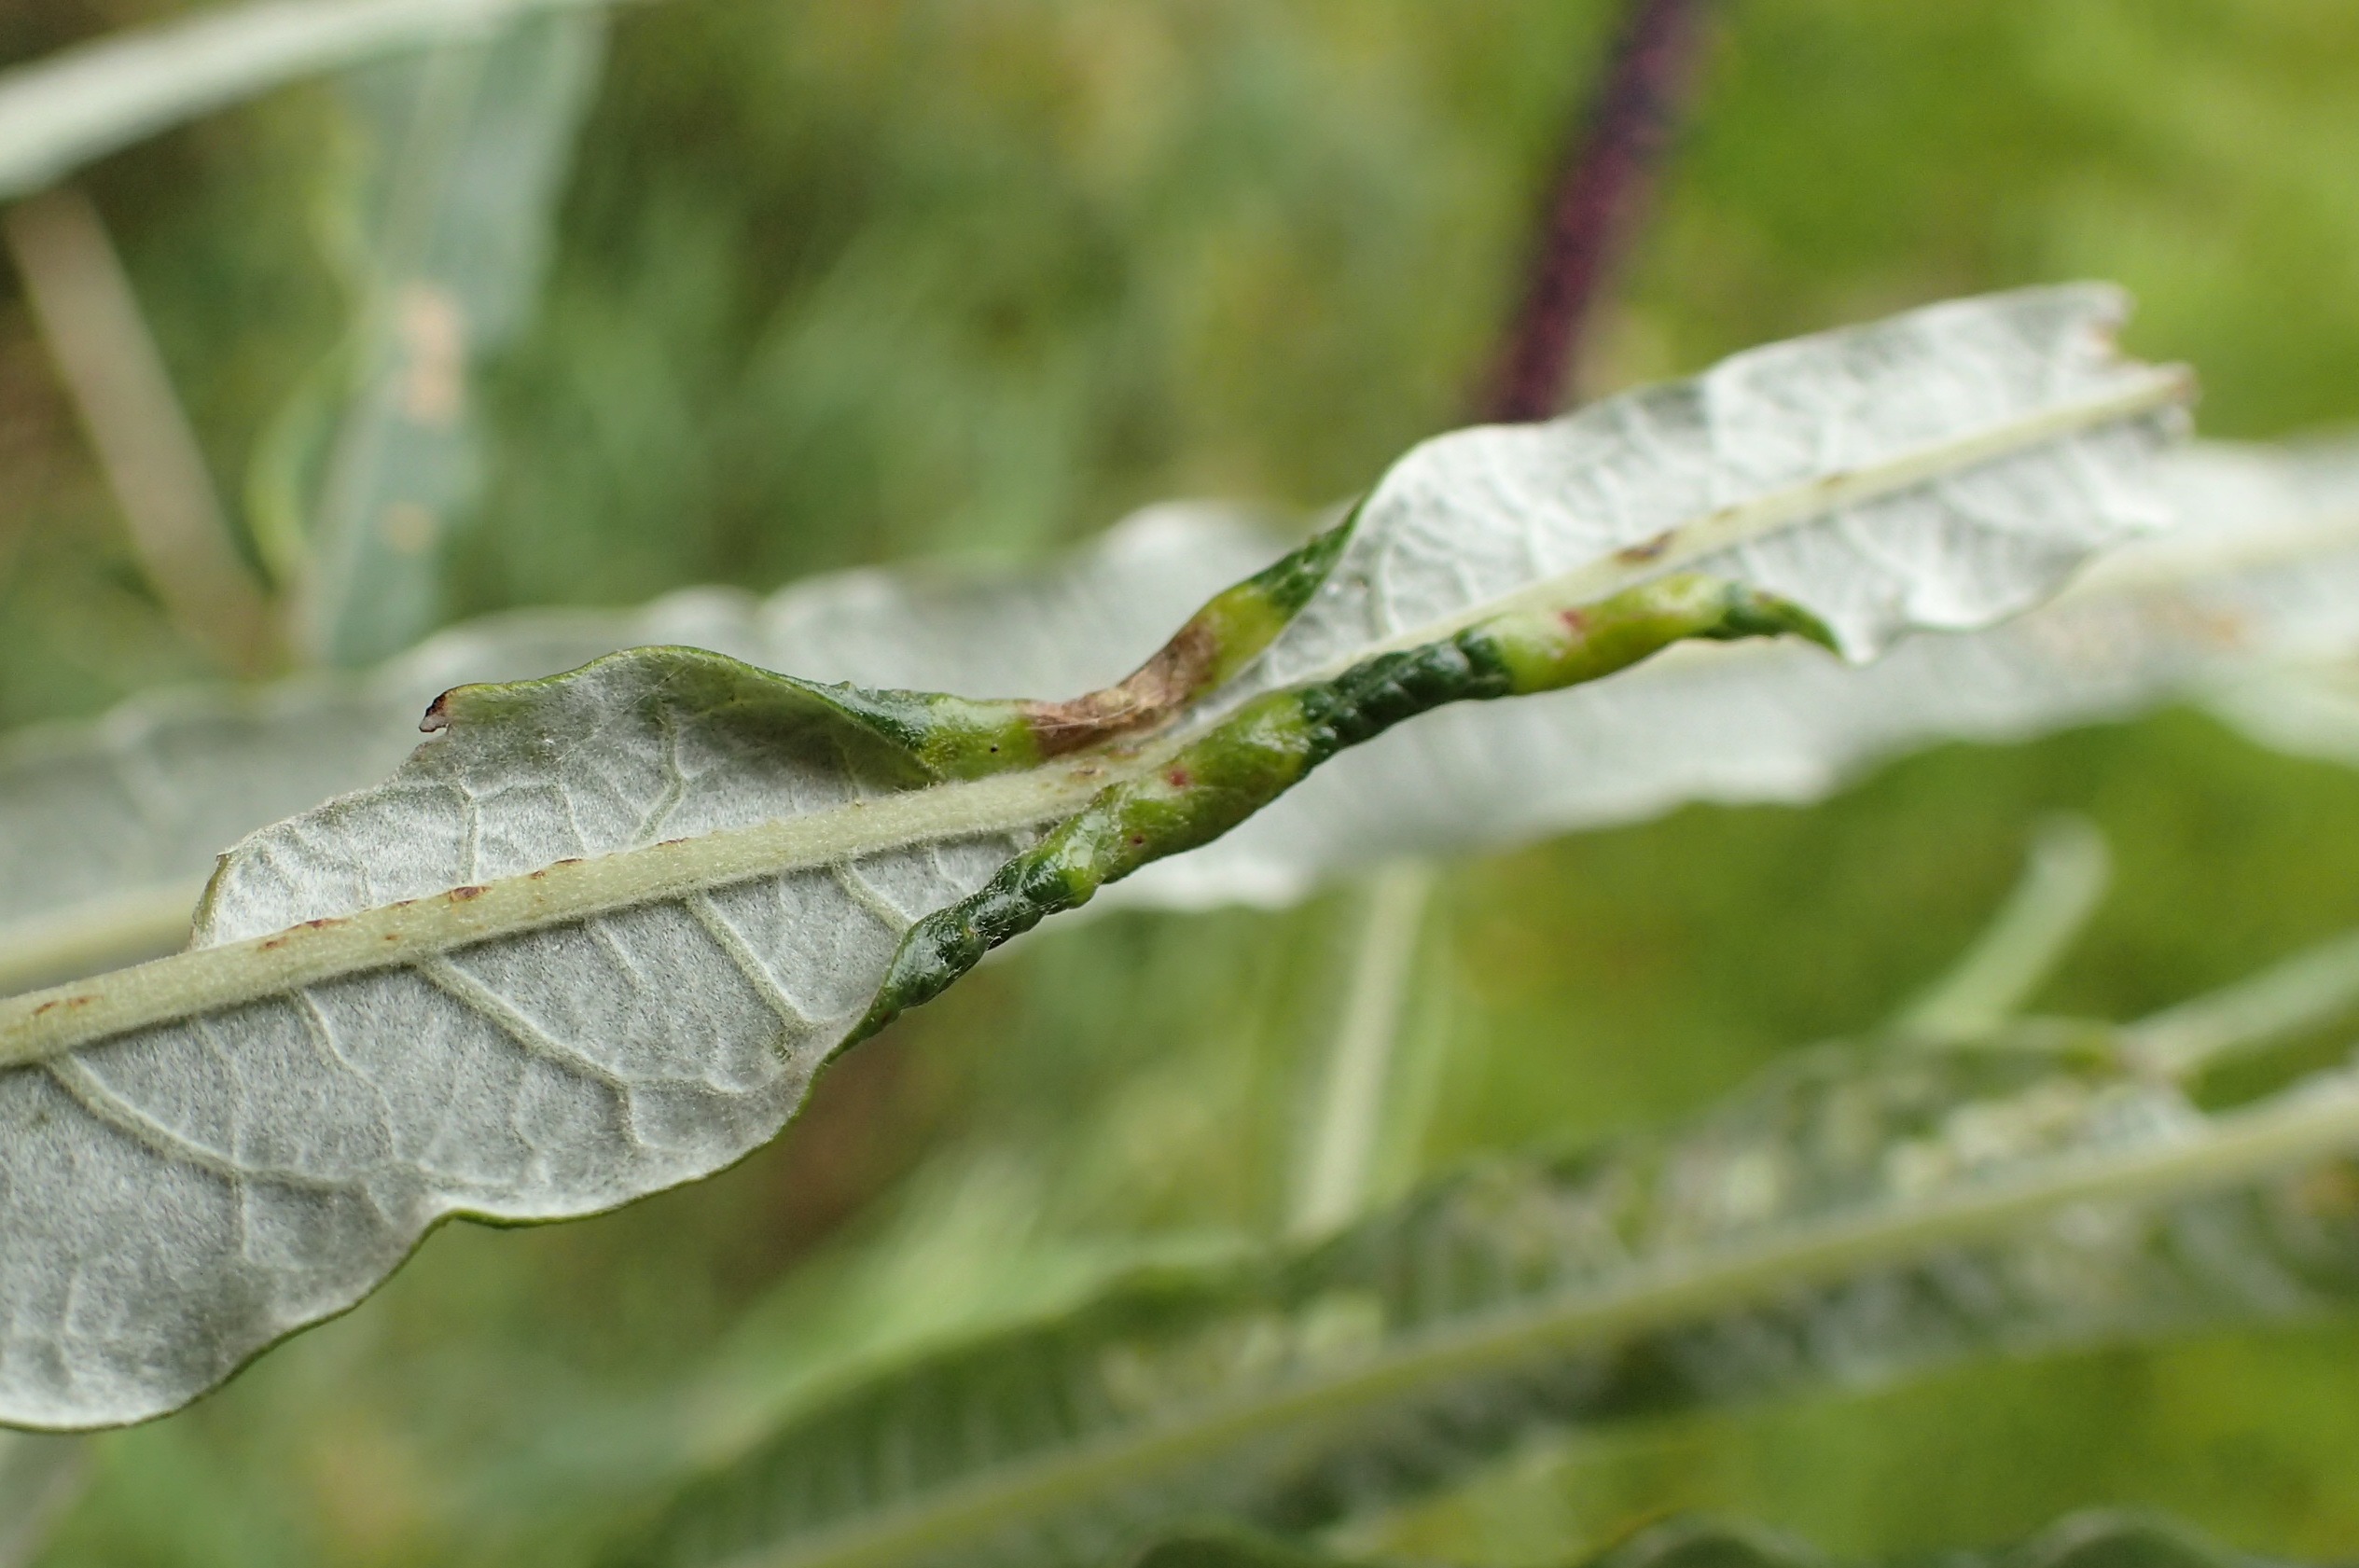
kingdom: Animalia
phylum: Arthropoda
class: Insecta
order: Diptera
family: Cecidomyiidae
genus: Rabdophaga
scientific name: Rabdophaga marginemtorquens
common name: Båndpilegalmyg
